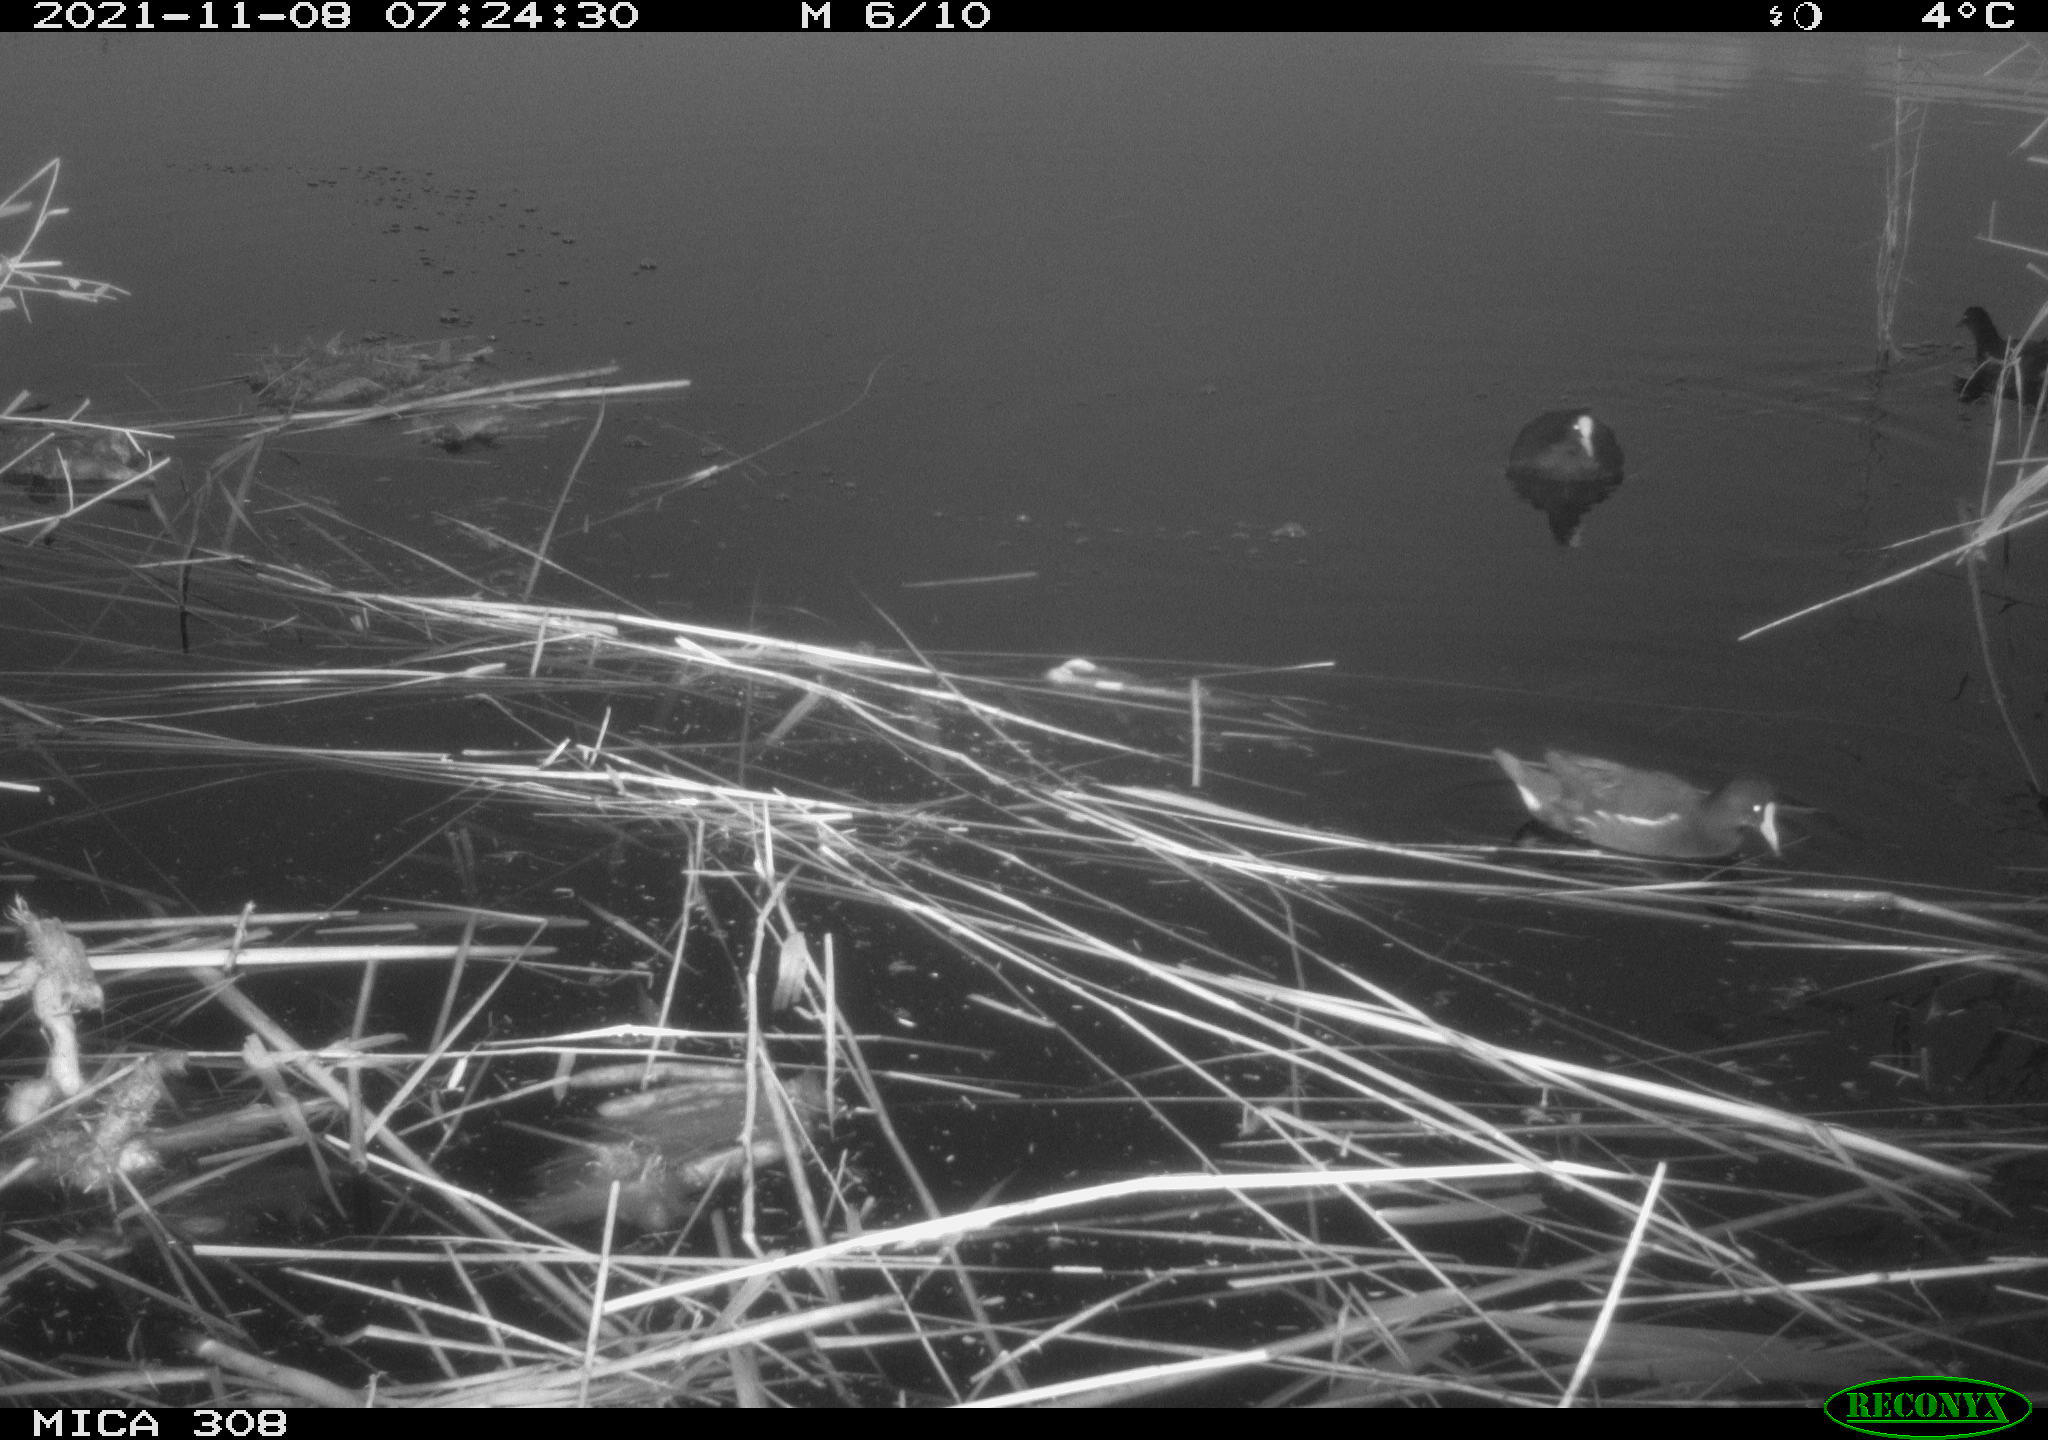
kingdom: Animalia
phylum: Chordata
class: Aves
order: Gruiformes
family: Rallidae
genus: Gallinula
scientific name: Gallinula chloropus
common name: Common moorhen
